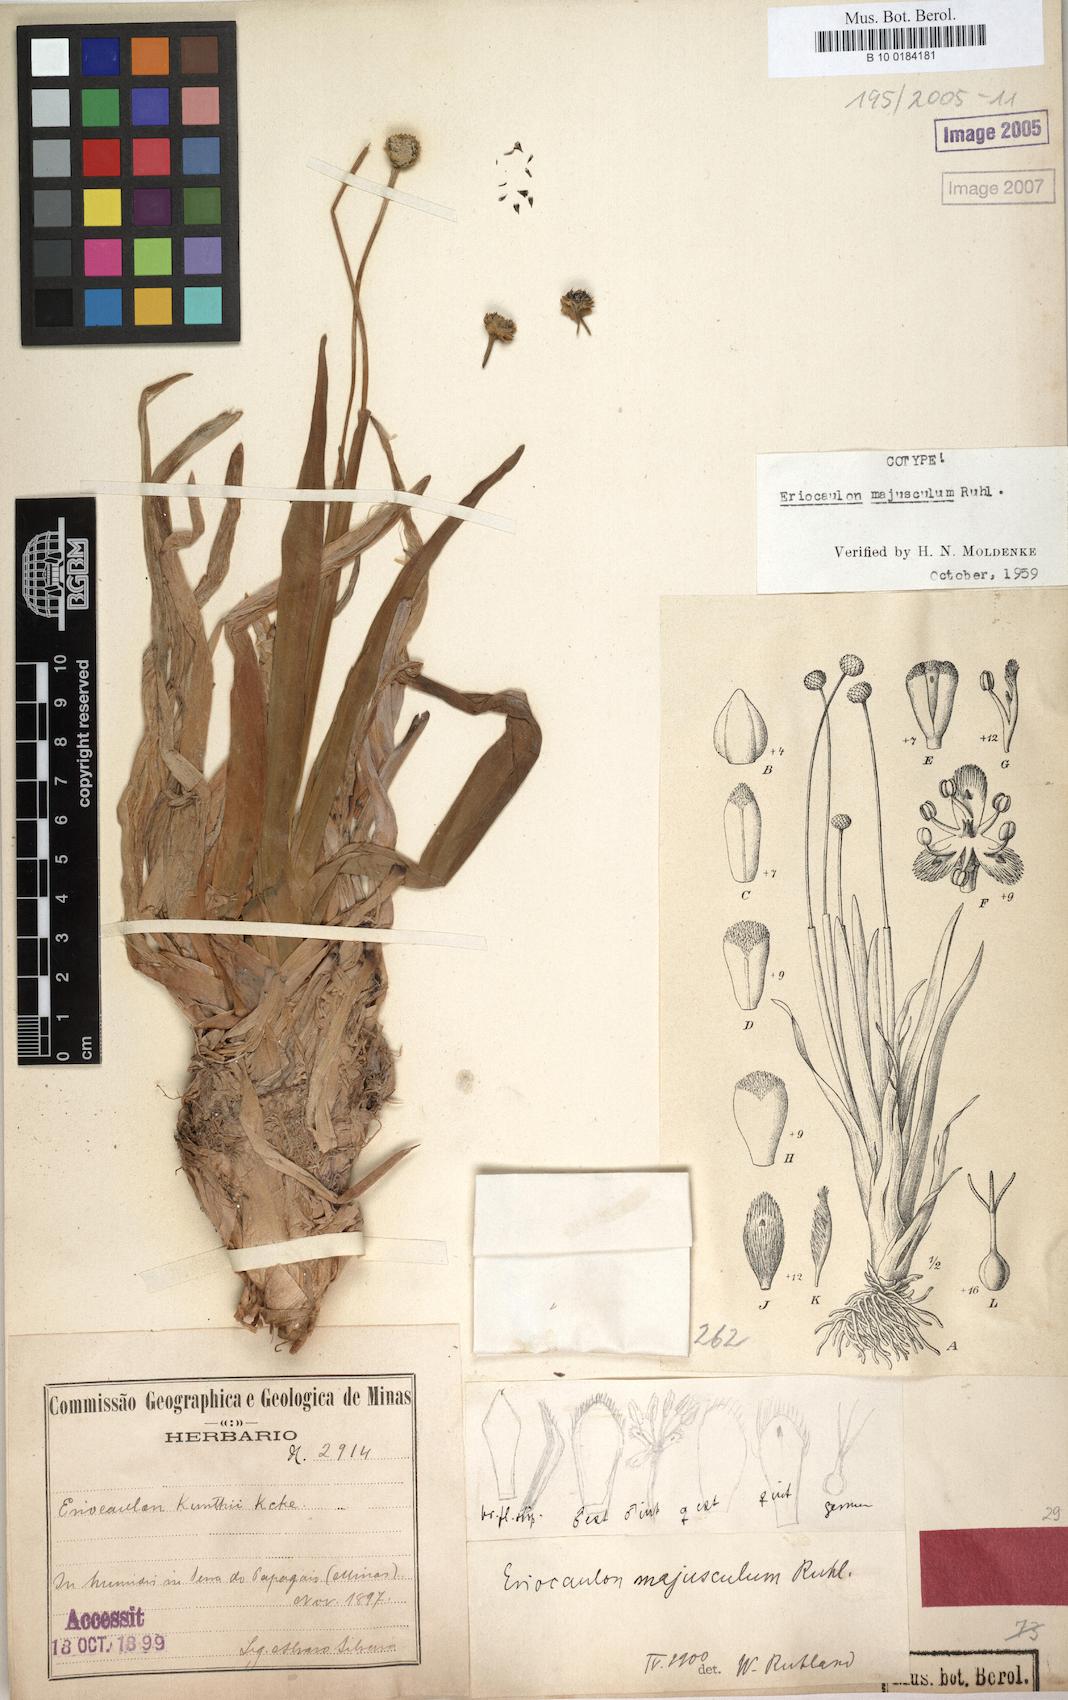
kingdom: Plantae
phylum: Tracheophyta
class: Liliopsida
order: Poales
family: Eriocaulaceae
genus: Eriocaulon
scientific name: Eriocaulon majusculum
